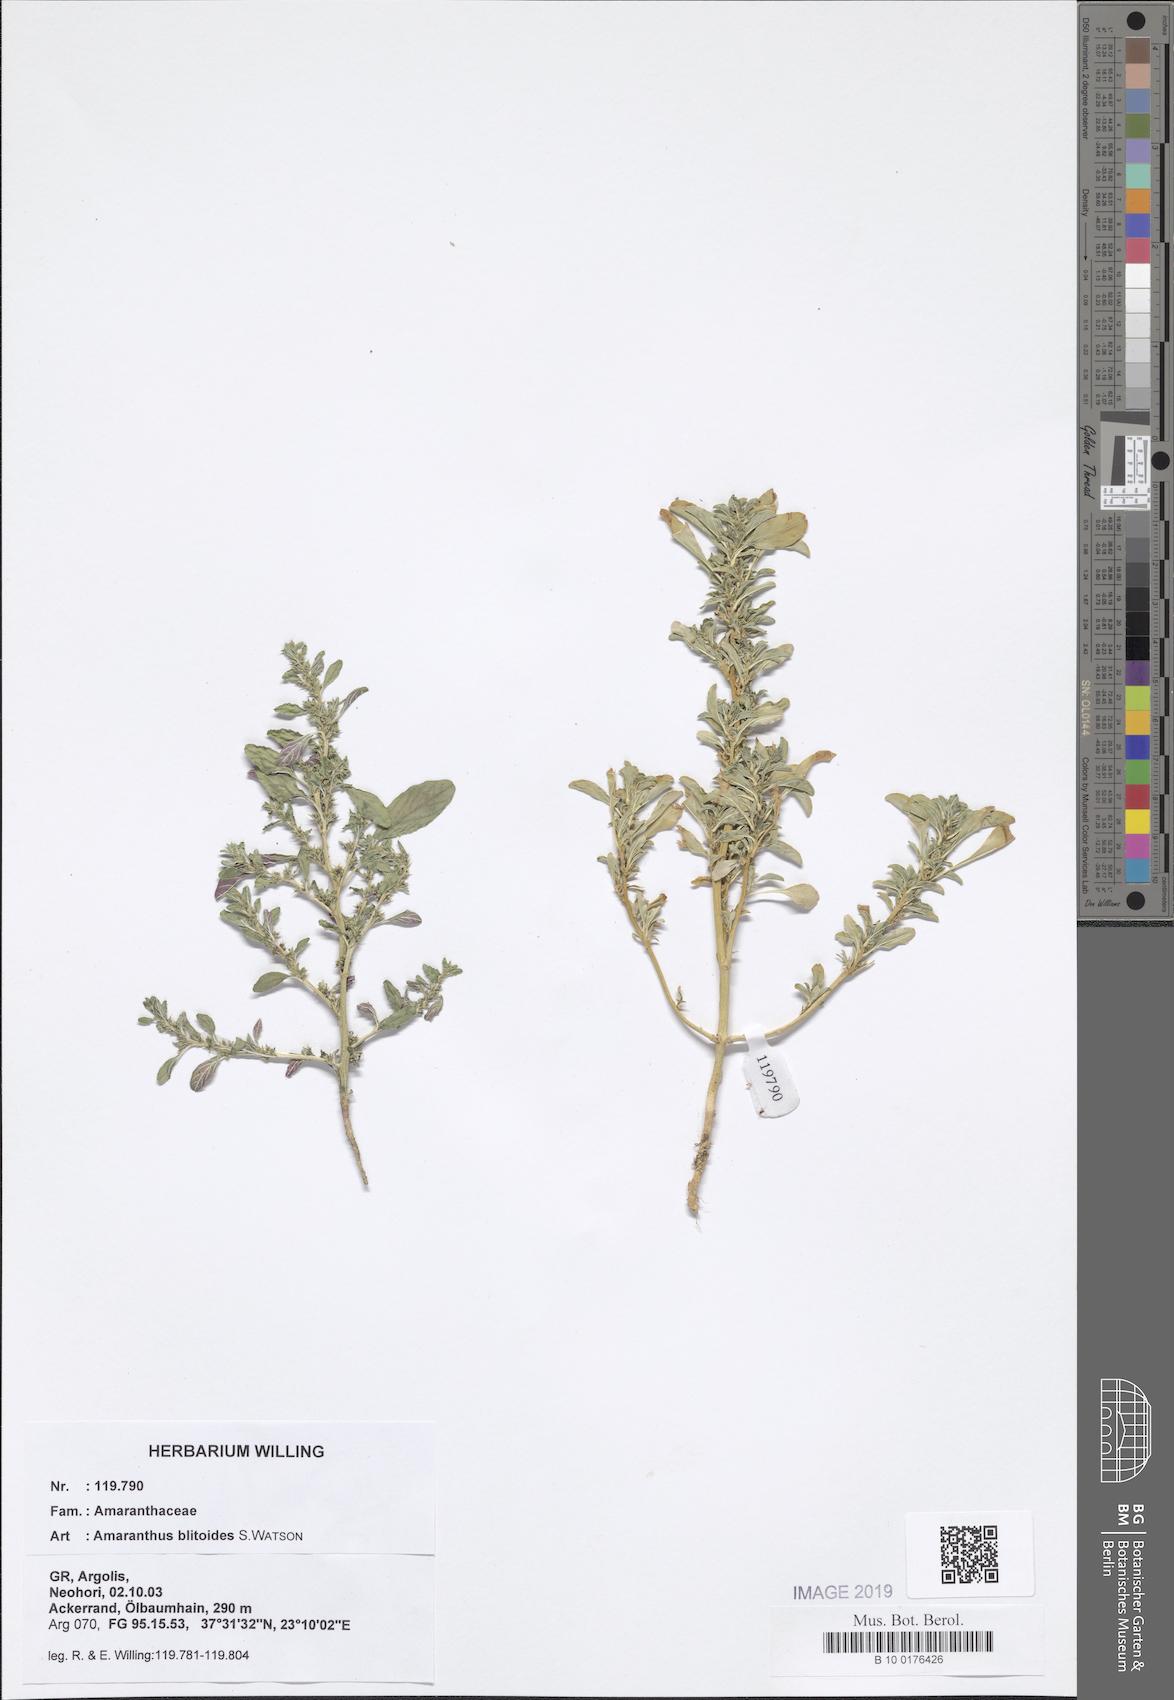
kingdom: Plantae
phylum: Tracheophyta
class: Magnoliopsida
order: Caryophyllales
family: Amaranthaceae
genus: Amaranthus
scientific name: Amaranthus blitoides
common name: Prostrate pigweed
